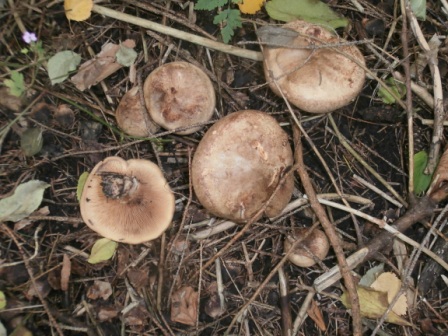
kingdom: Fungi
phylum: Basidiomycota
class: Agaricomycetes
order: Boletales
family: Paxillaceae
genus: Paxillus
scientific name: Paxillus involutus
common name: almindelig netbladhat
